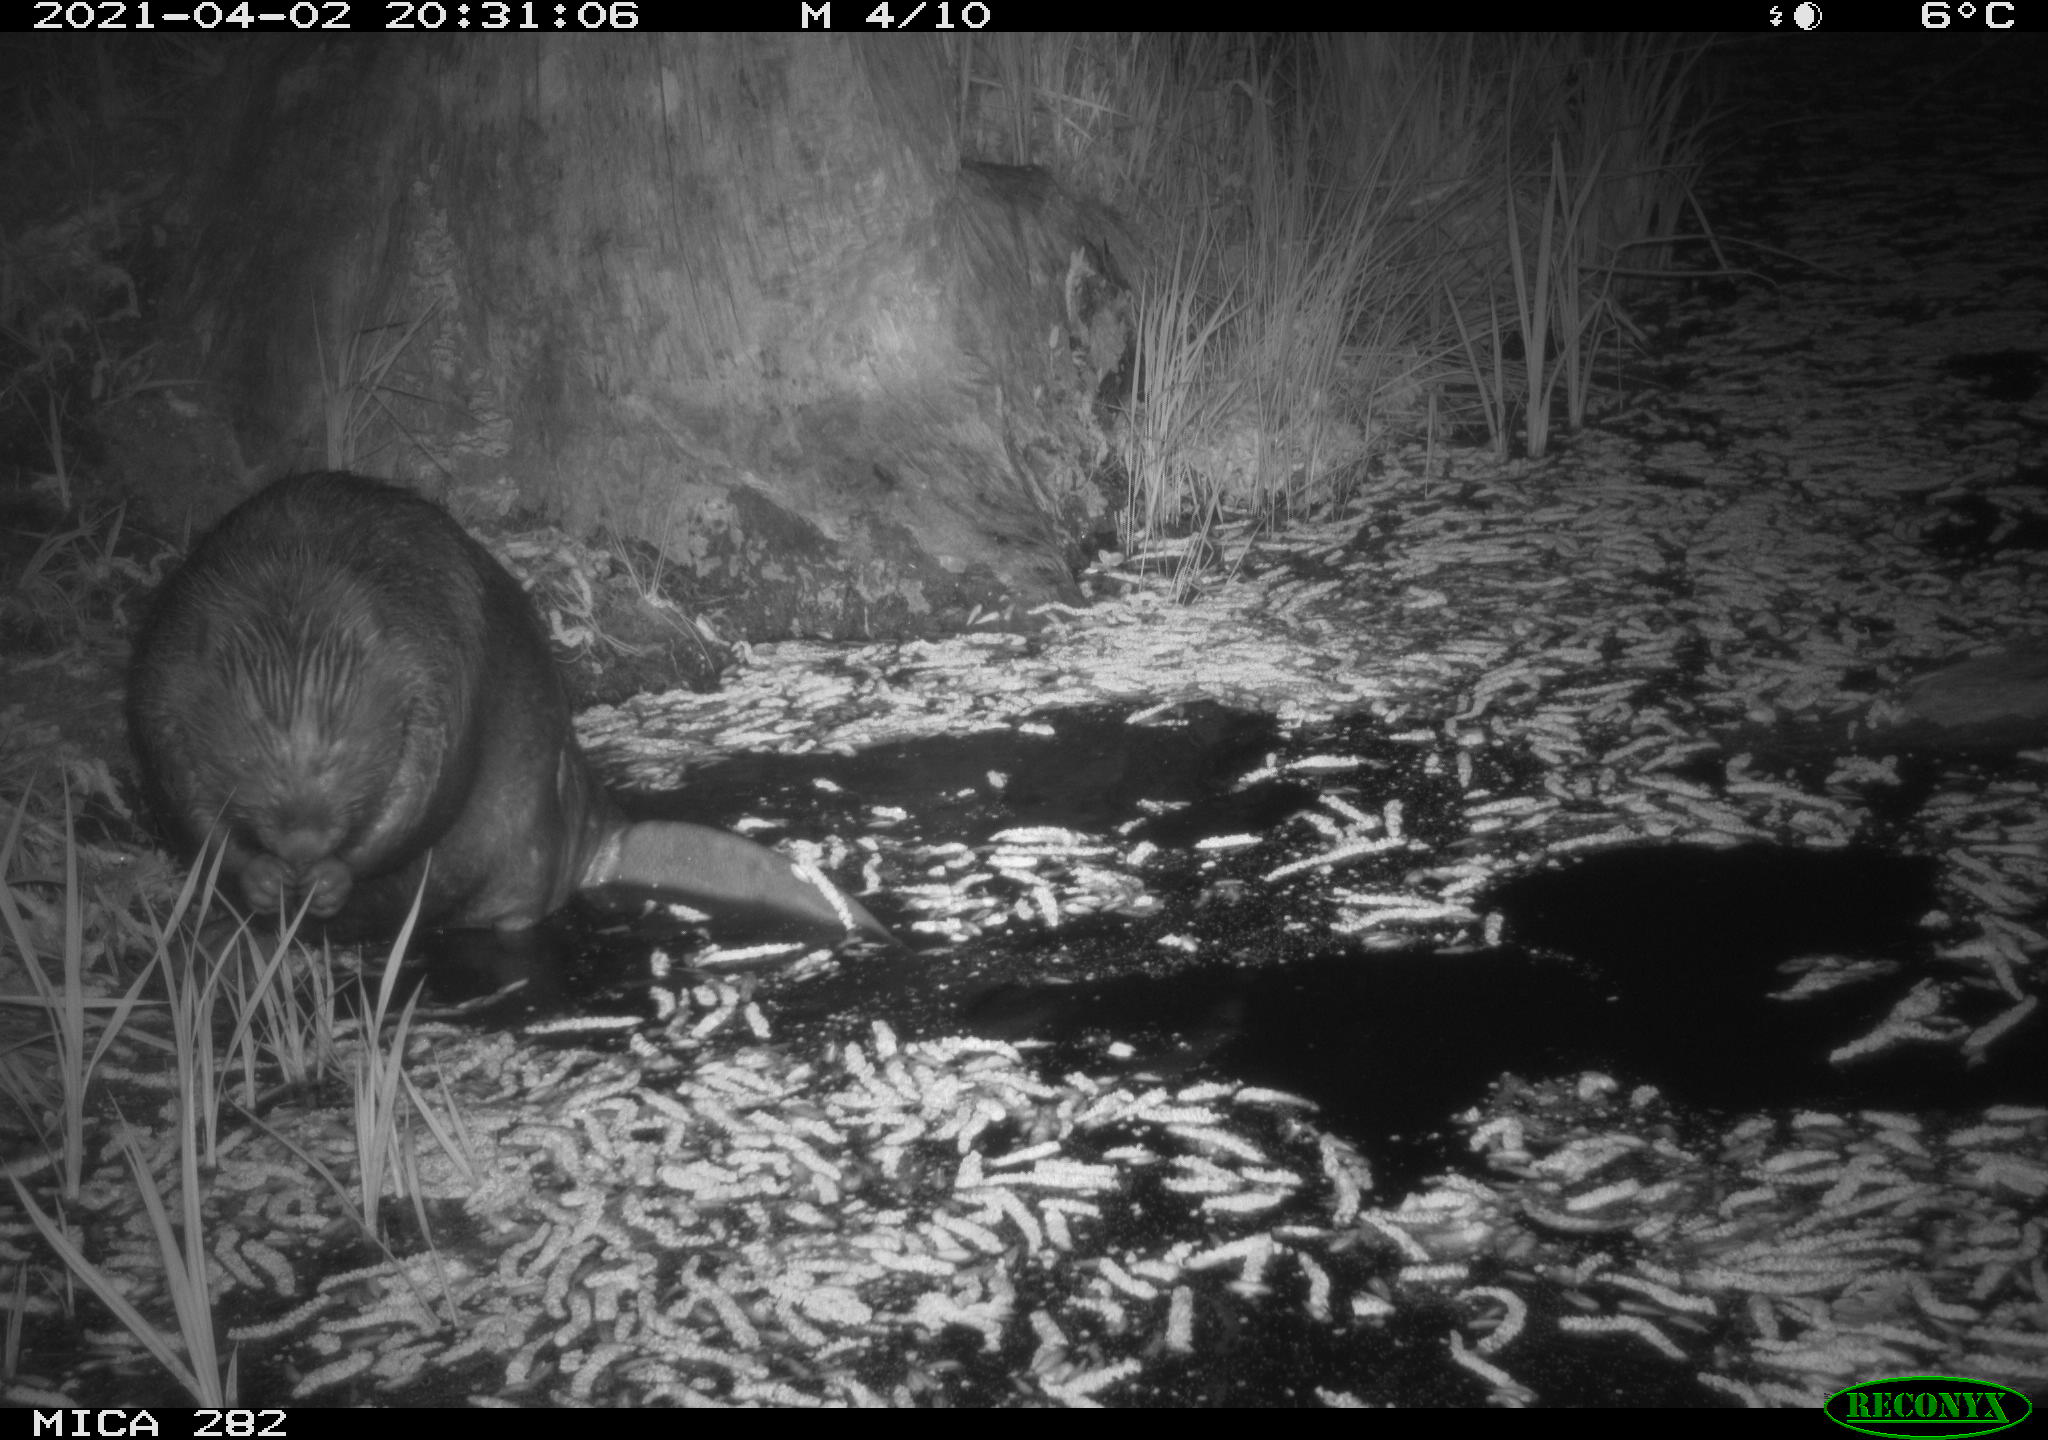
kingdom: Animalia
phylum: Chordata
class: Mammalia
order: Rodentia
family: Castoridae
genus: Castor
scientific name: Castor fiber
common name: Eurasian beaver
